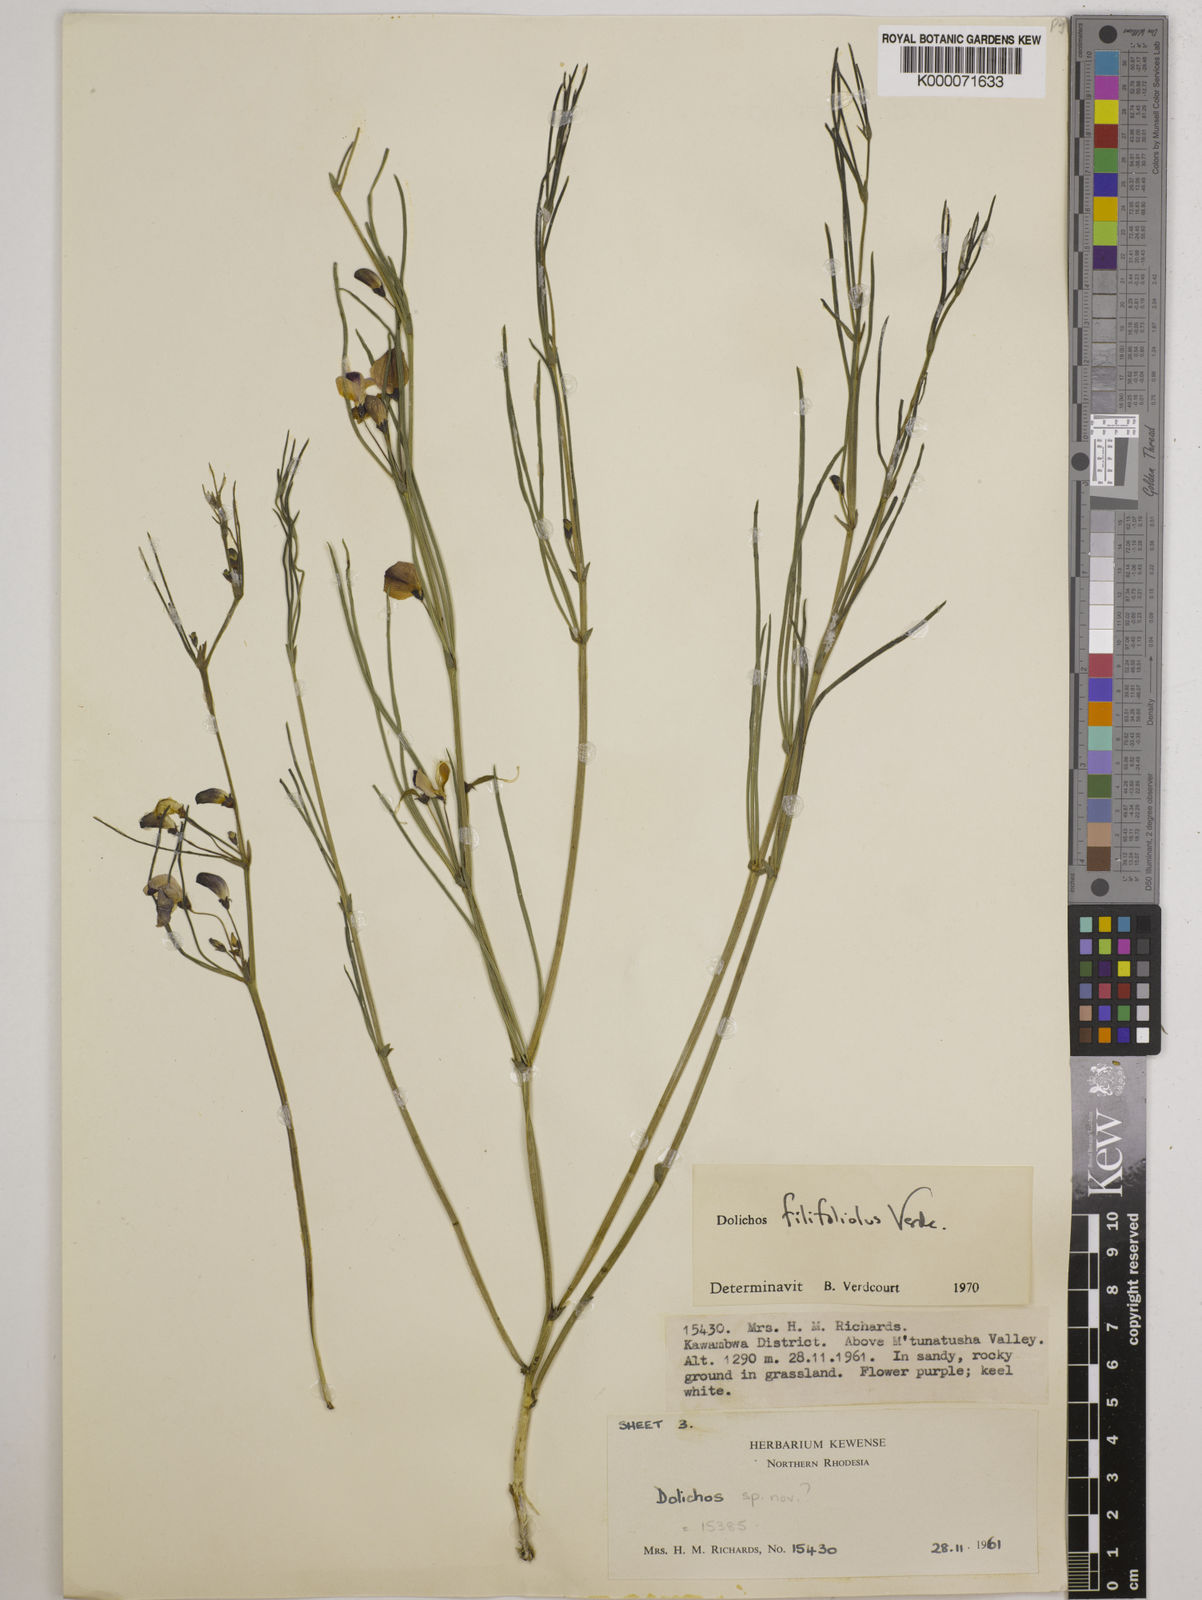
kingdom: Plantae
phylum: Tracheophyta
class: Magnoliopsida
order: Fabales
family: Fabaceae
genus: Dolichos
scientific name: Dolichos filifoliolus
